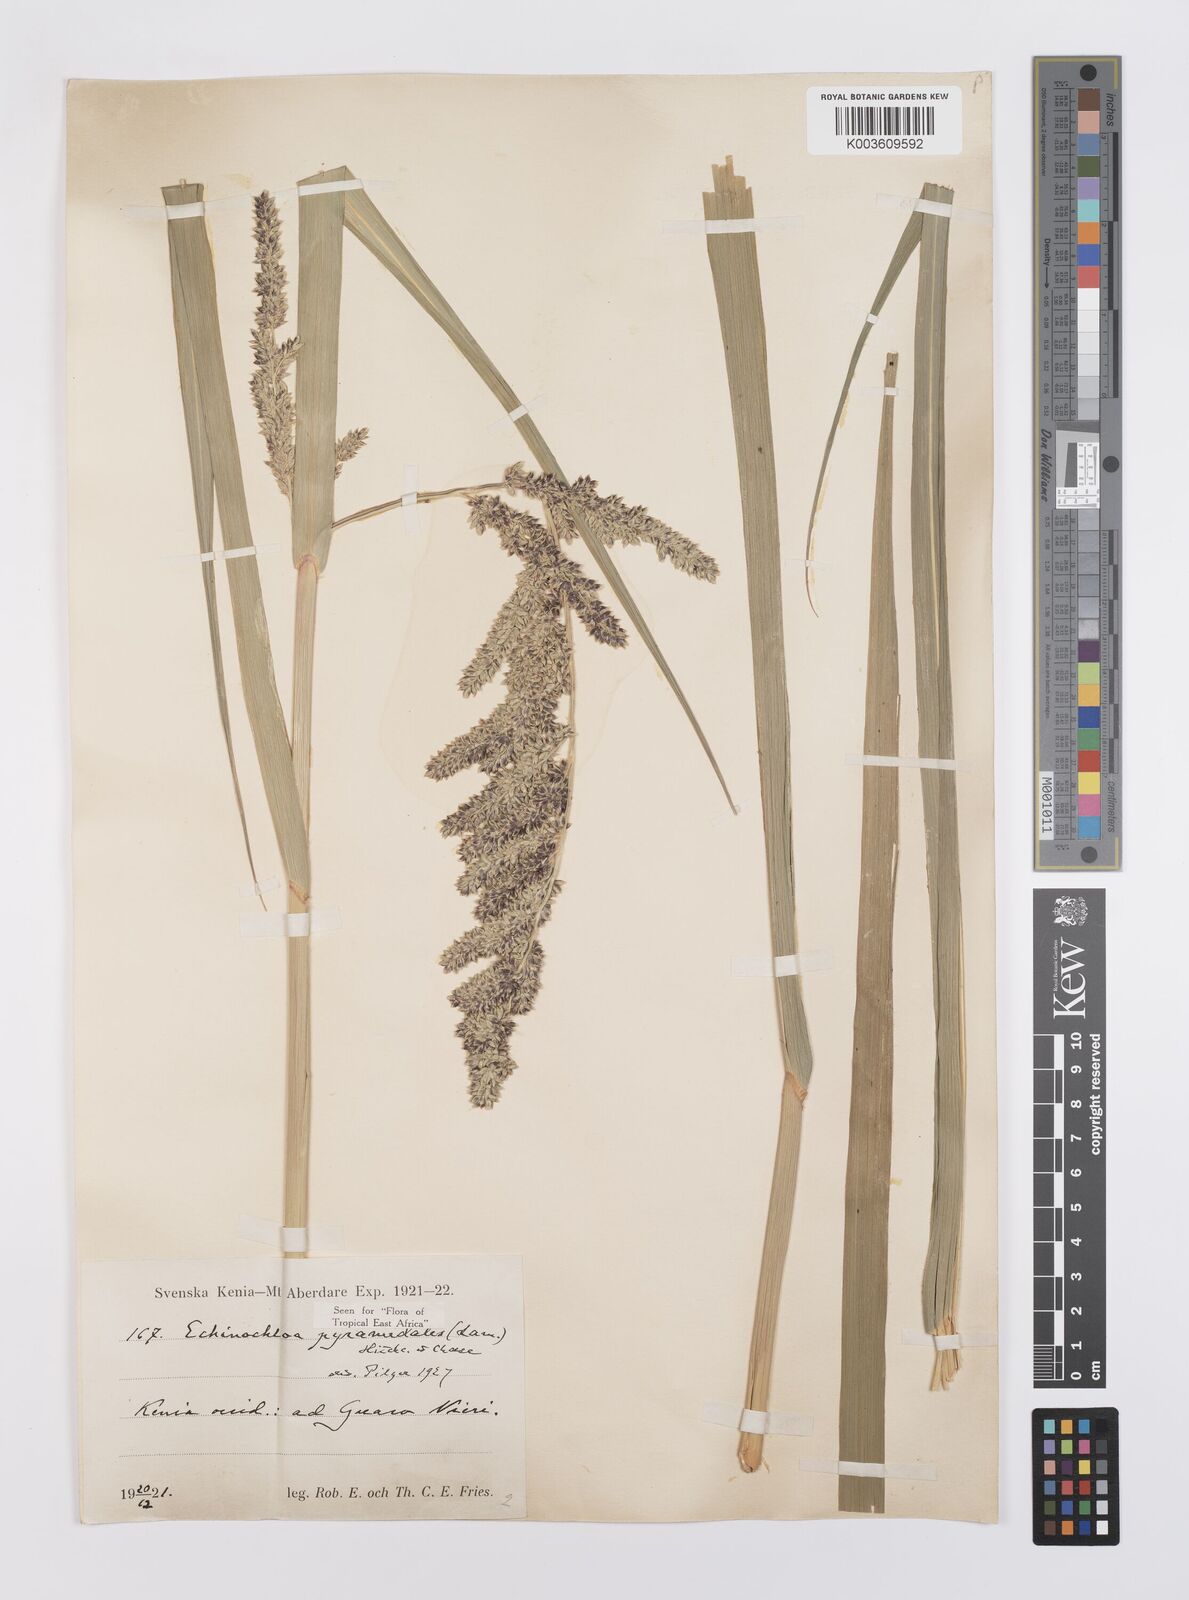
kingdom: Plantae
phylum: Tracheophyta
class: Liliopsida
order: Poales
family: Poaceae
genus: Echinochloa
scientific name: Echinochloa pyramidalis
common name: Antelope grass
